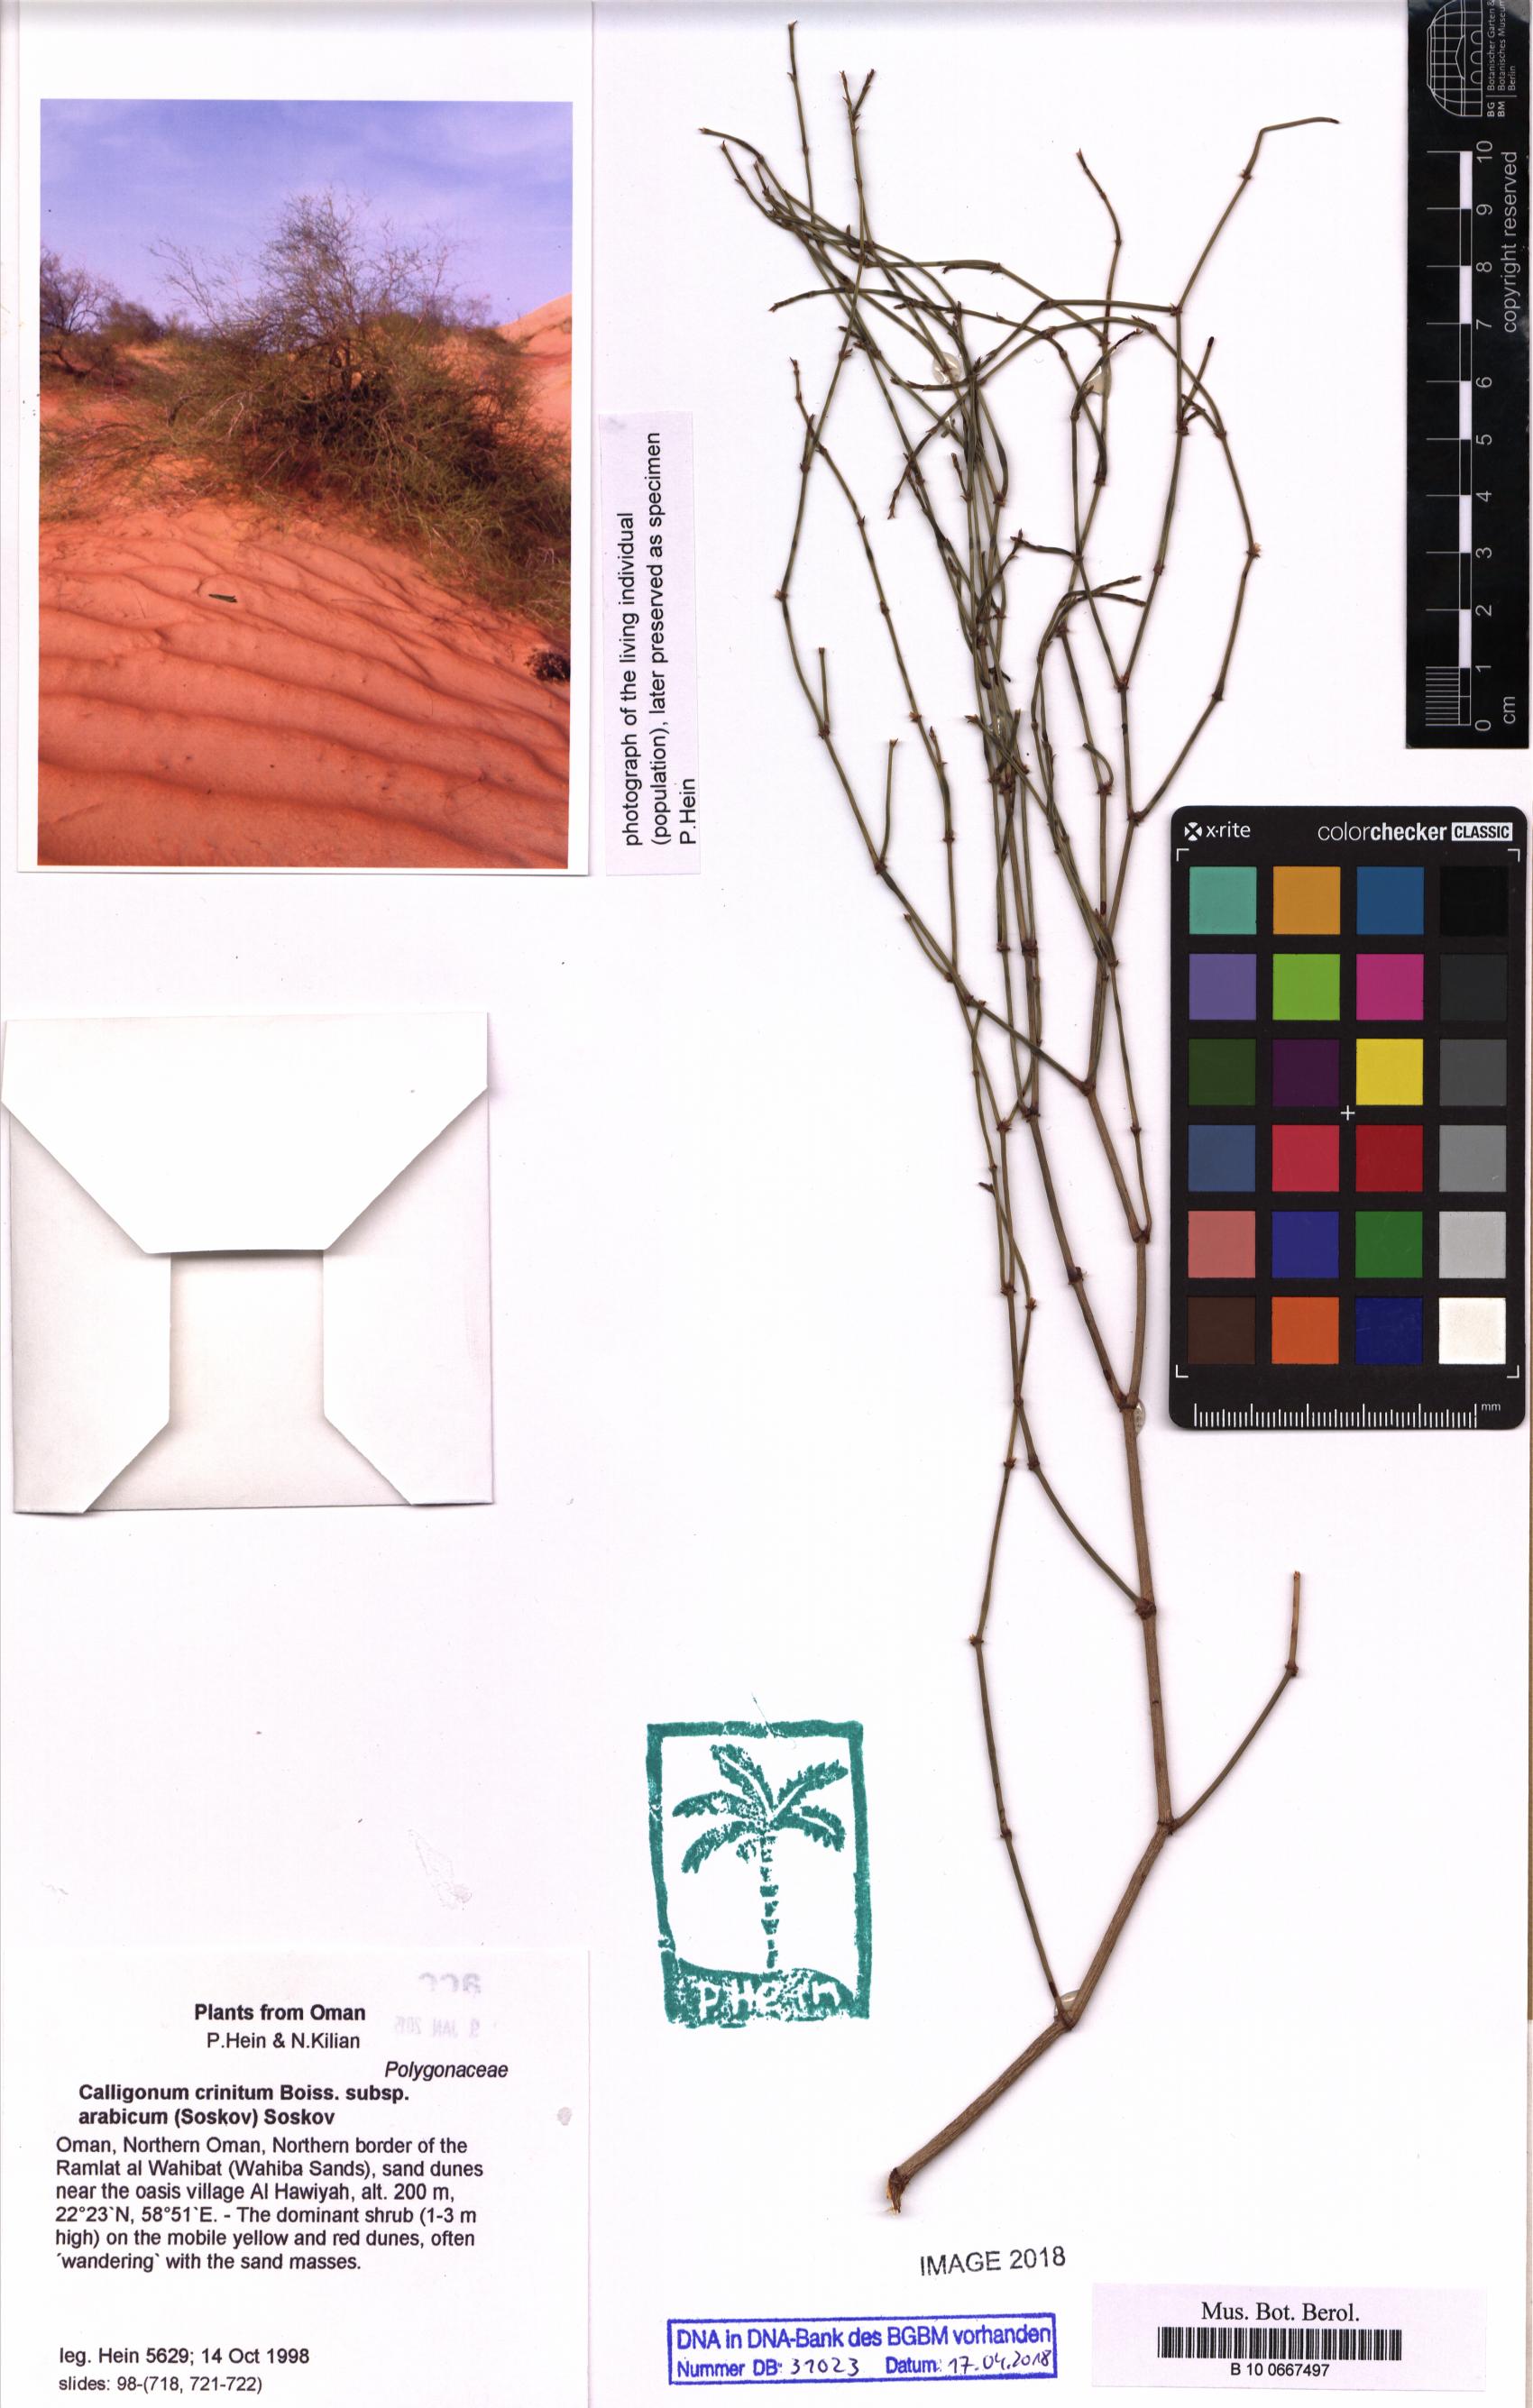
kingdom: Plantae
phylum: Tracheophyta
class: Magnoliopsida
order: Caryophyllales
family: Polygonaceae
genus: Calligonum
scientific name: Calligonum crinitum
